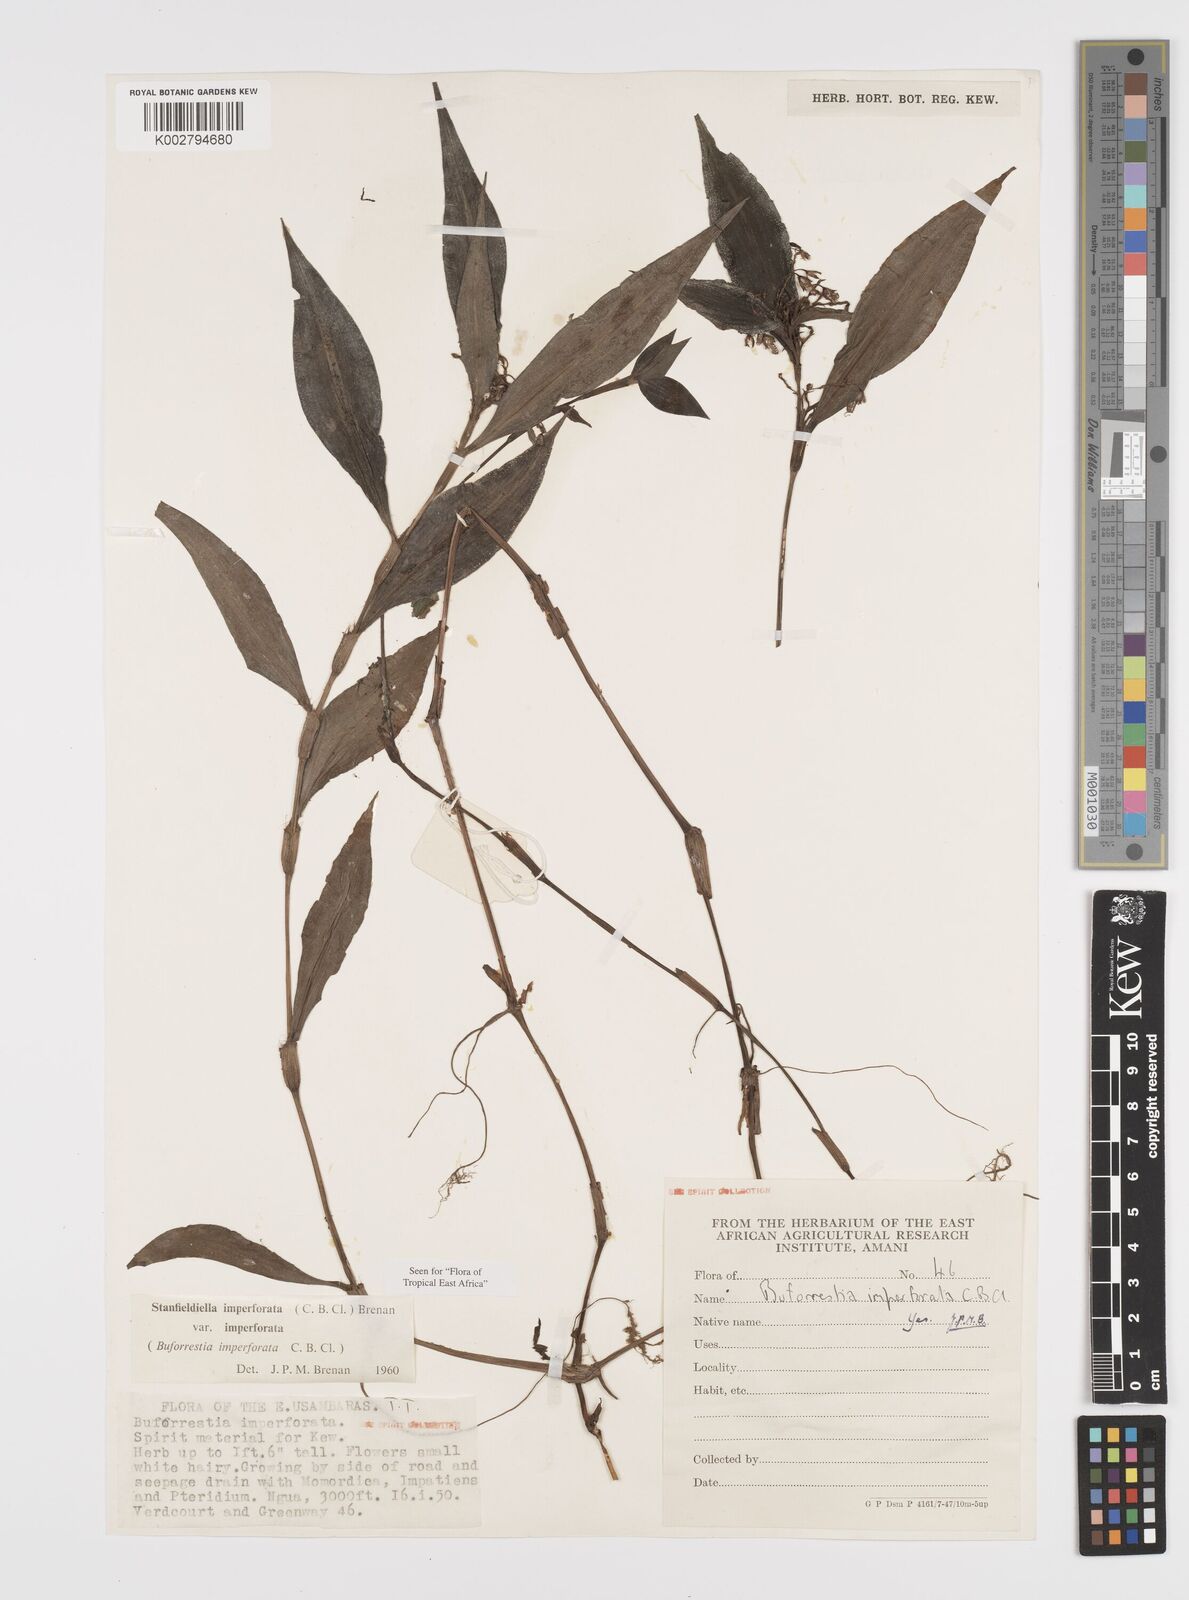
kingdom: Plantae
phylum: Tracheophyta
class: Liliopsida
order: Commelinales
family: Commelinaceae
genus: Stanfieldiella
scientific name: Stanfieldiella imperforata
